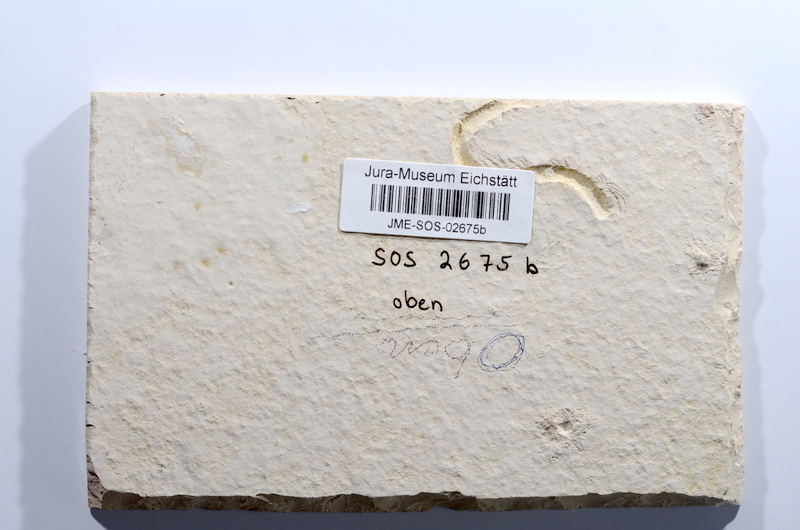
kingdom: Animalia
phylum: Chordata
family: Ascalaboidae
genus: Tharsis
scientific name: Tharsis dubius
